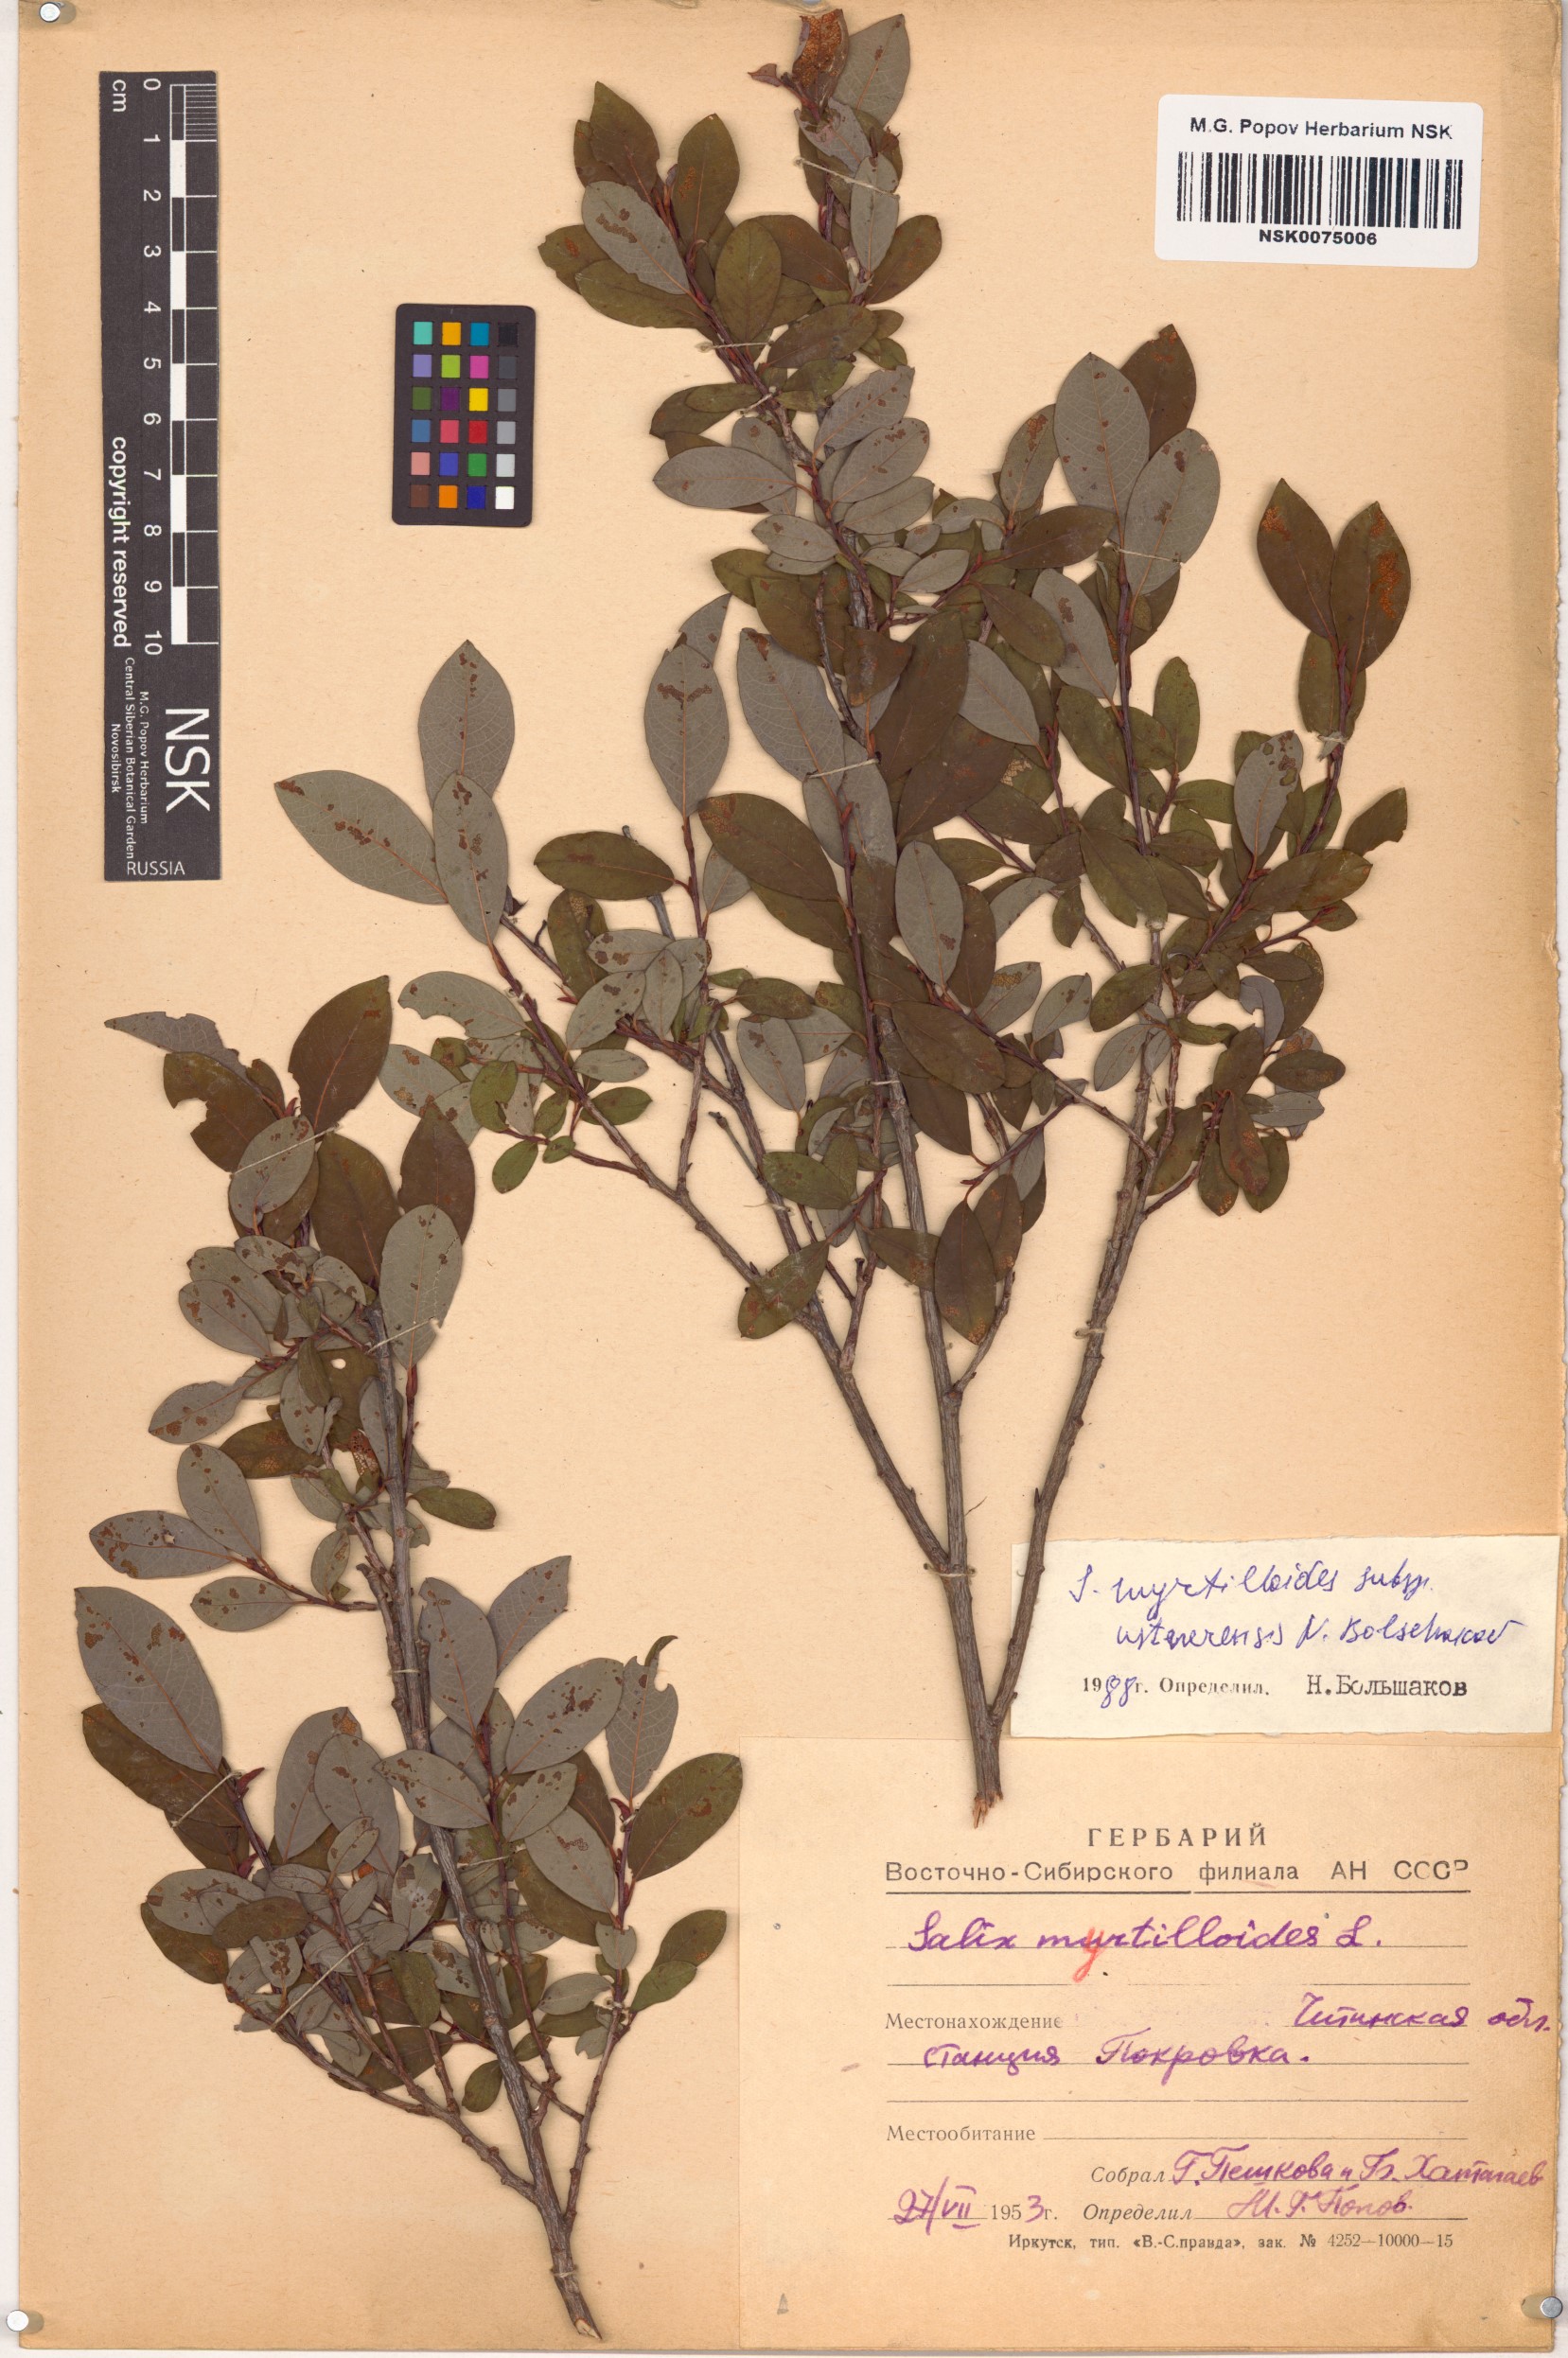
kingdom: Plantae
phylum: Tracheophyta
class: Magnoliopsida
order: Malpighiales
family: Salicaceae
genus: Salix
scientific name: Salix ustnerensis
